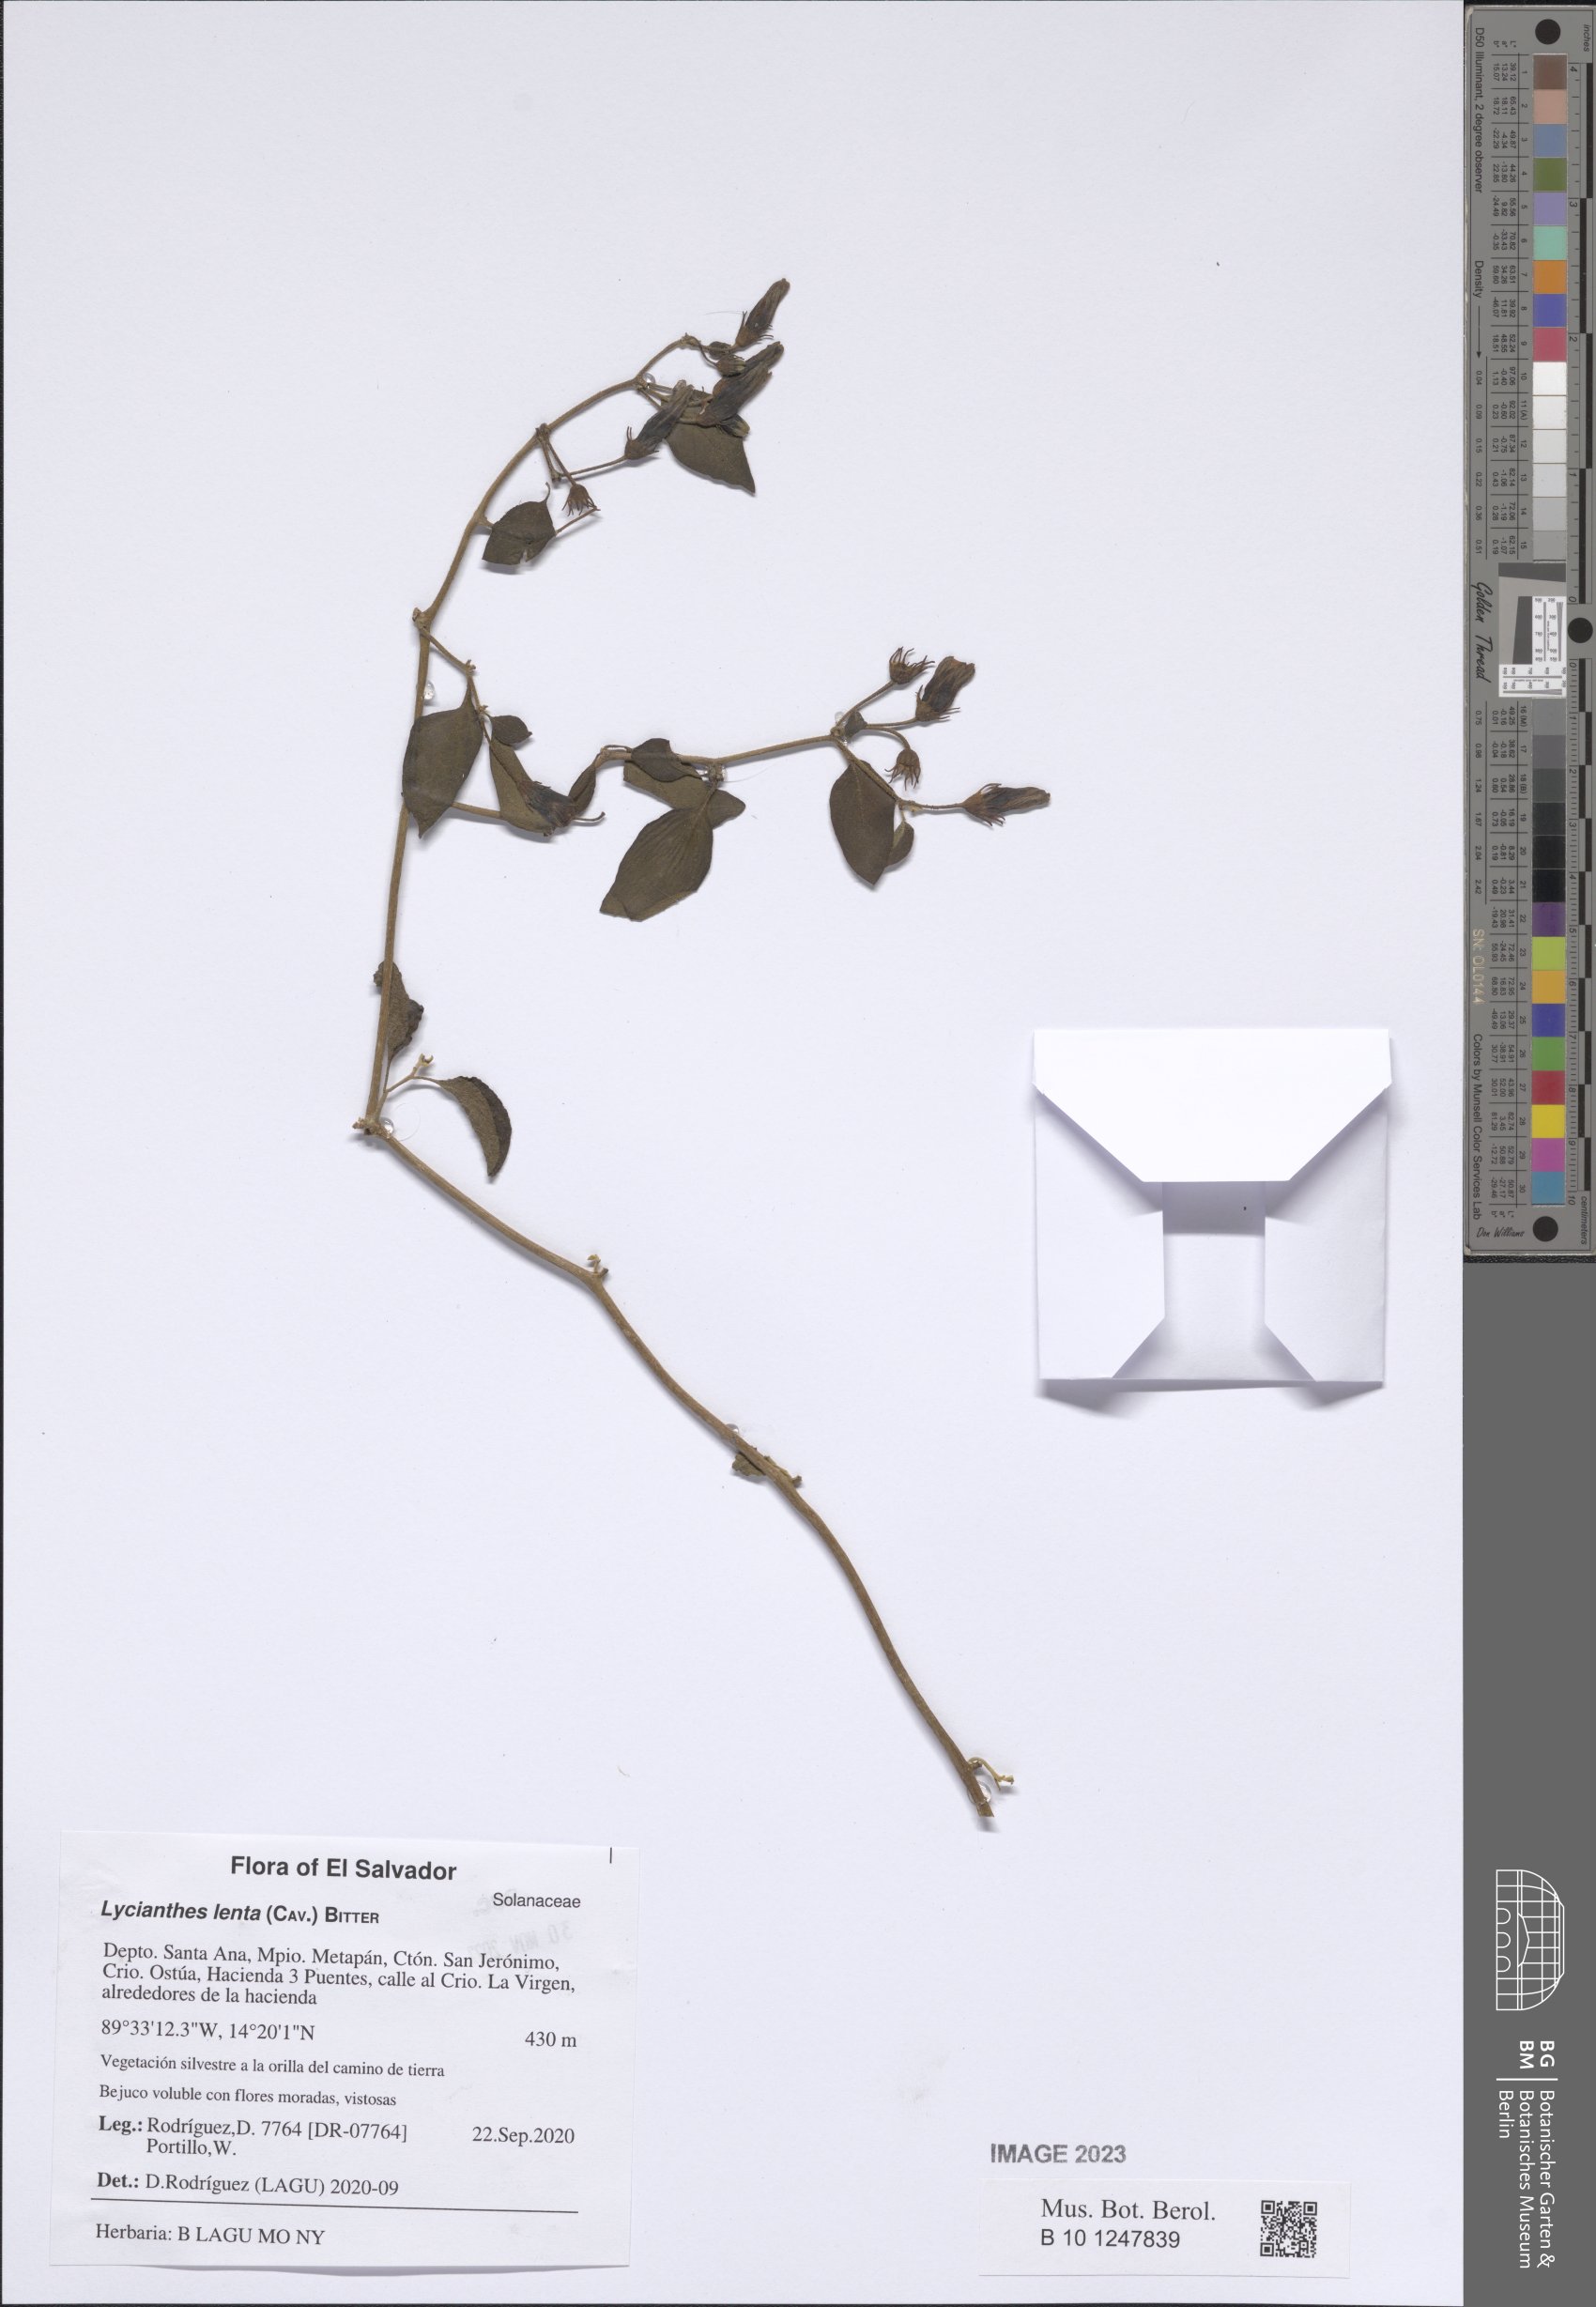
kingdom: Plantae
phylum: Tracheophyta
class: Magnoliopsida
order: Solanales
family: Solanaceae
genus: Lycianthes
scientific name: Lycianthes scandens
